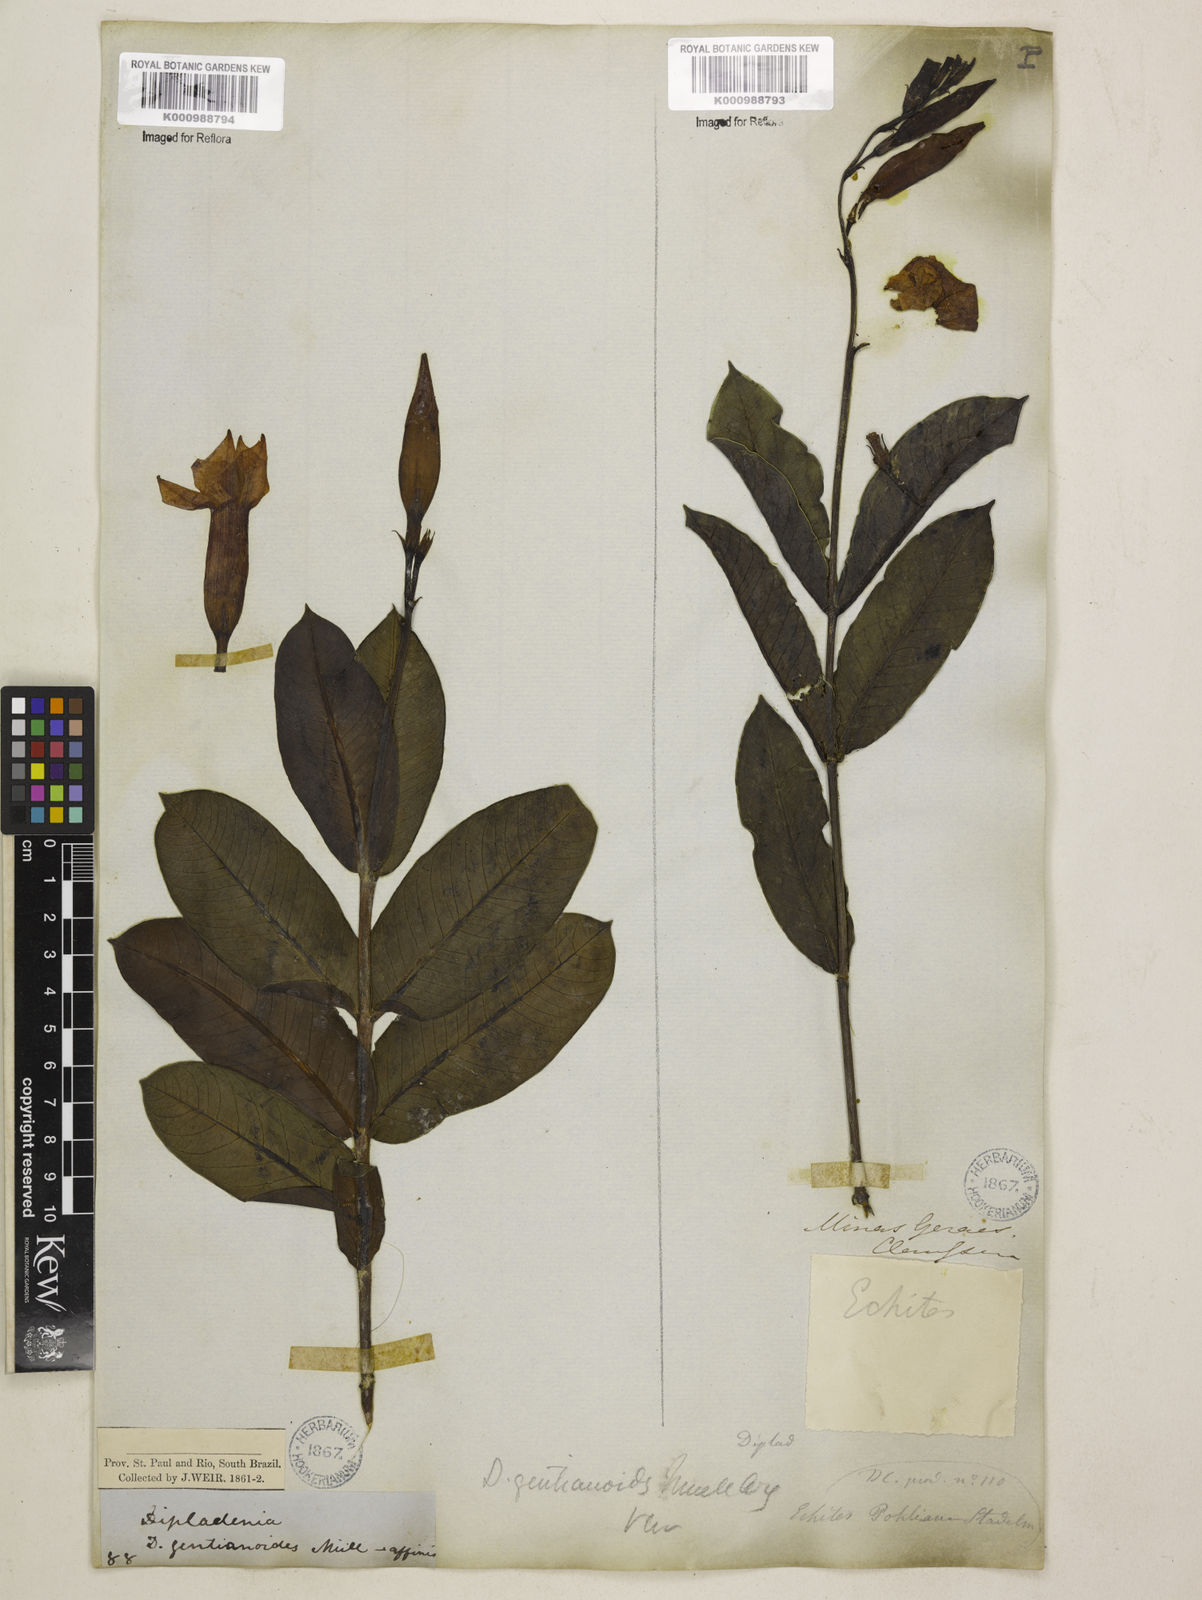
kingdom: Plantae
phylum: Tracheophyta
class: Magnoliopsida
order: Gentianales
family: Apocynaceae
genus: Mandevilla
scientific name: Mandevilla pohliana
